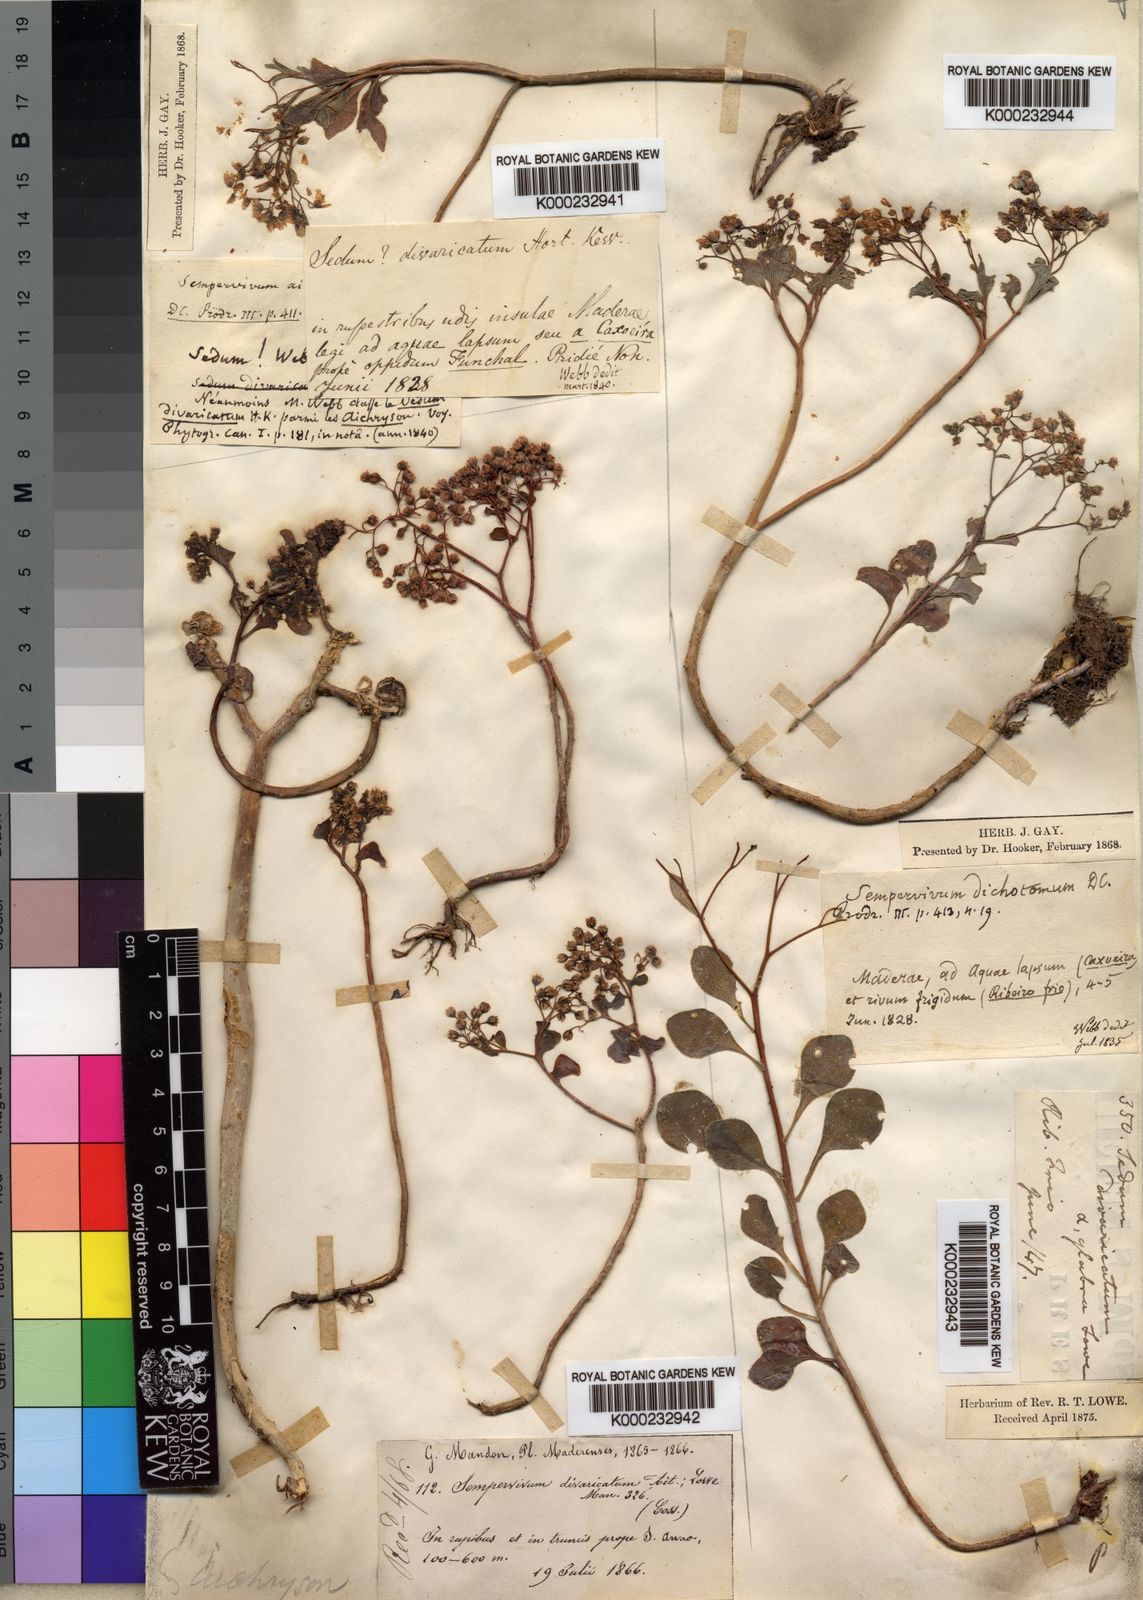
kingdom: Plantae
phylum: Tracheophyta
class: Magnoliopsida
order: Saxifragales
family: Crassulaceae
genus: Aichryson
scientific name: Aichryson divaricatum
